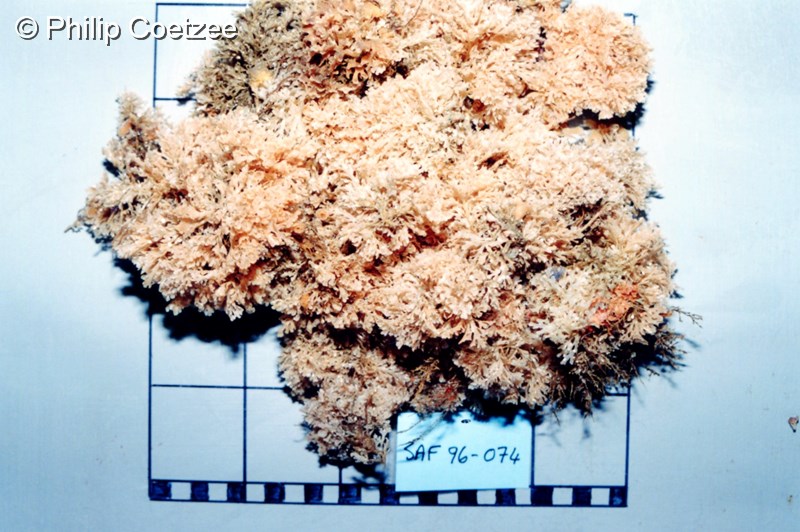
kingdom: Animalia
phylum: Bryozoa
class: Gymnolaemata
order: Cheilostomatida
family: Candidae
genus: Menipea
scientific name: Menipea triseriata
